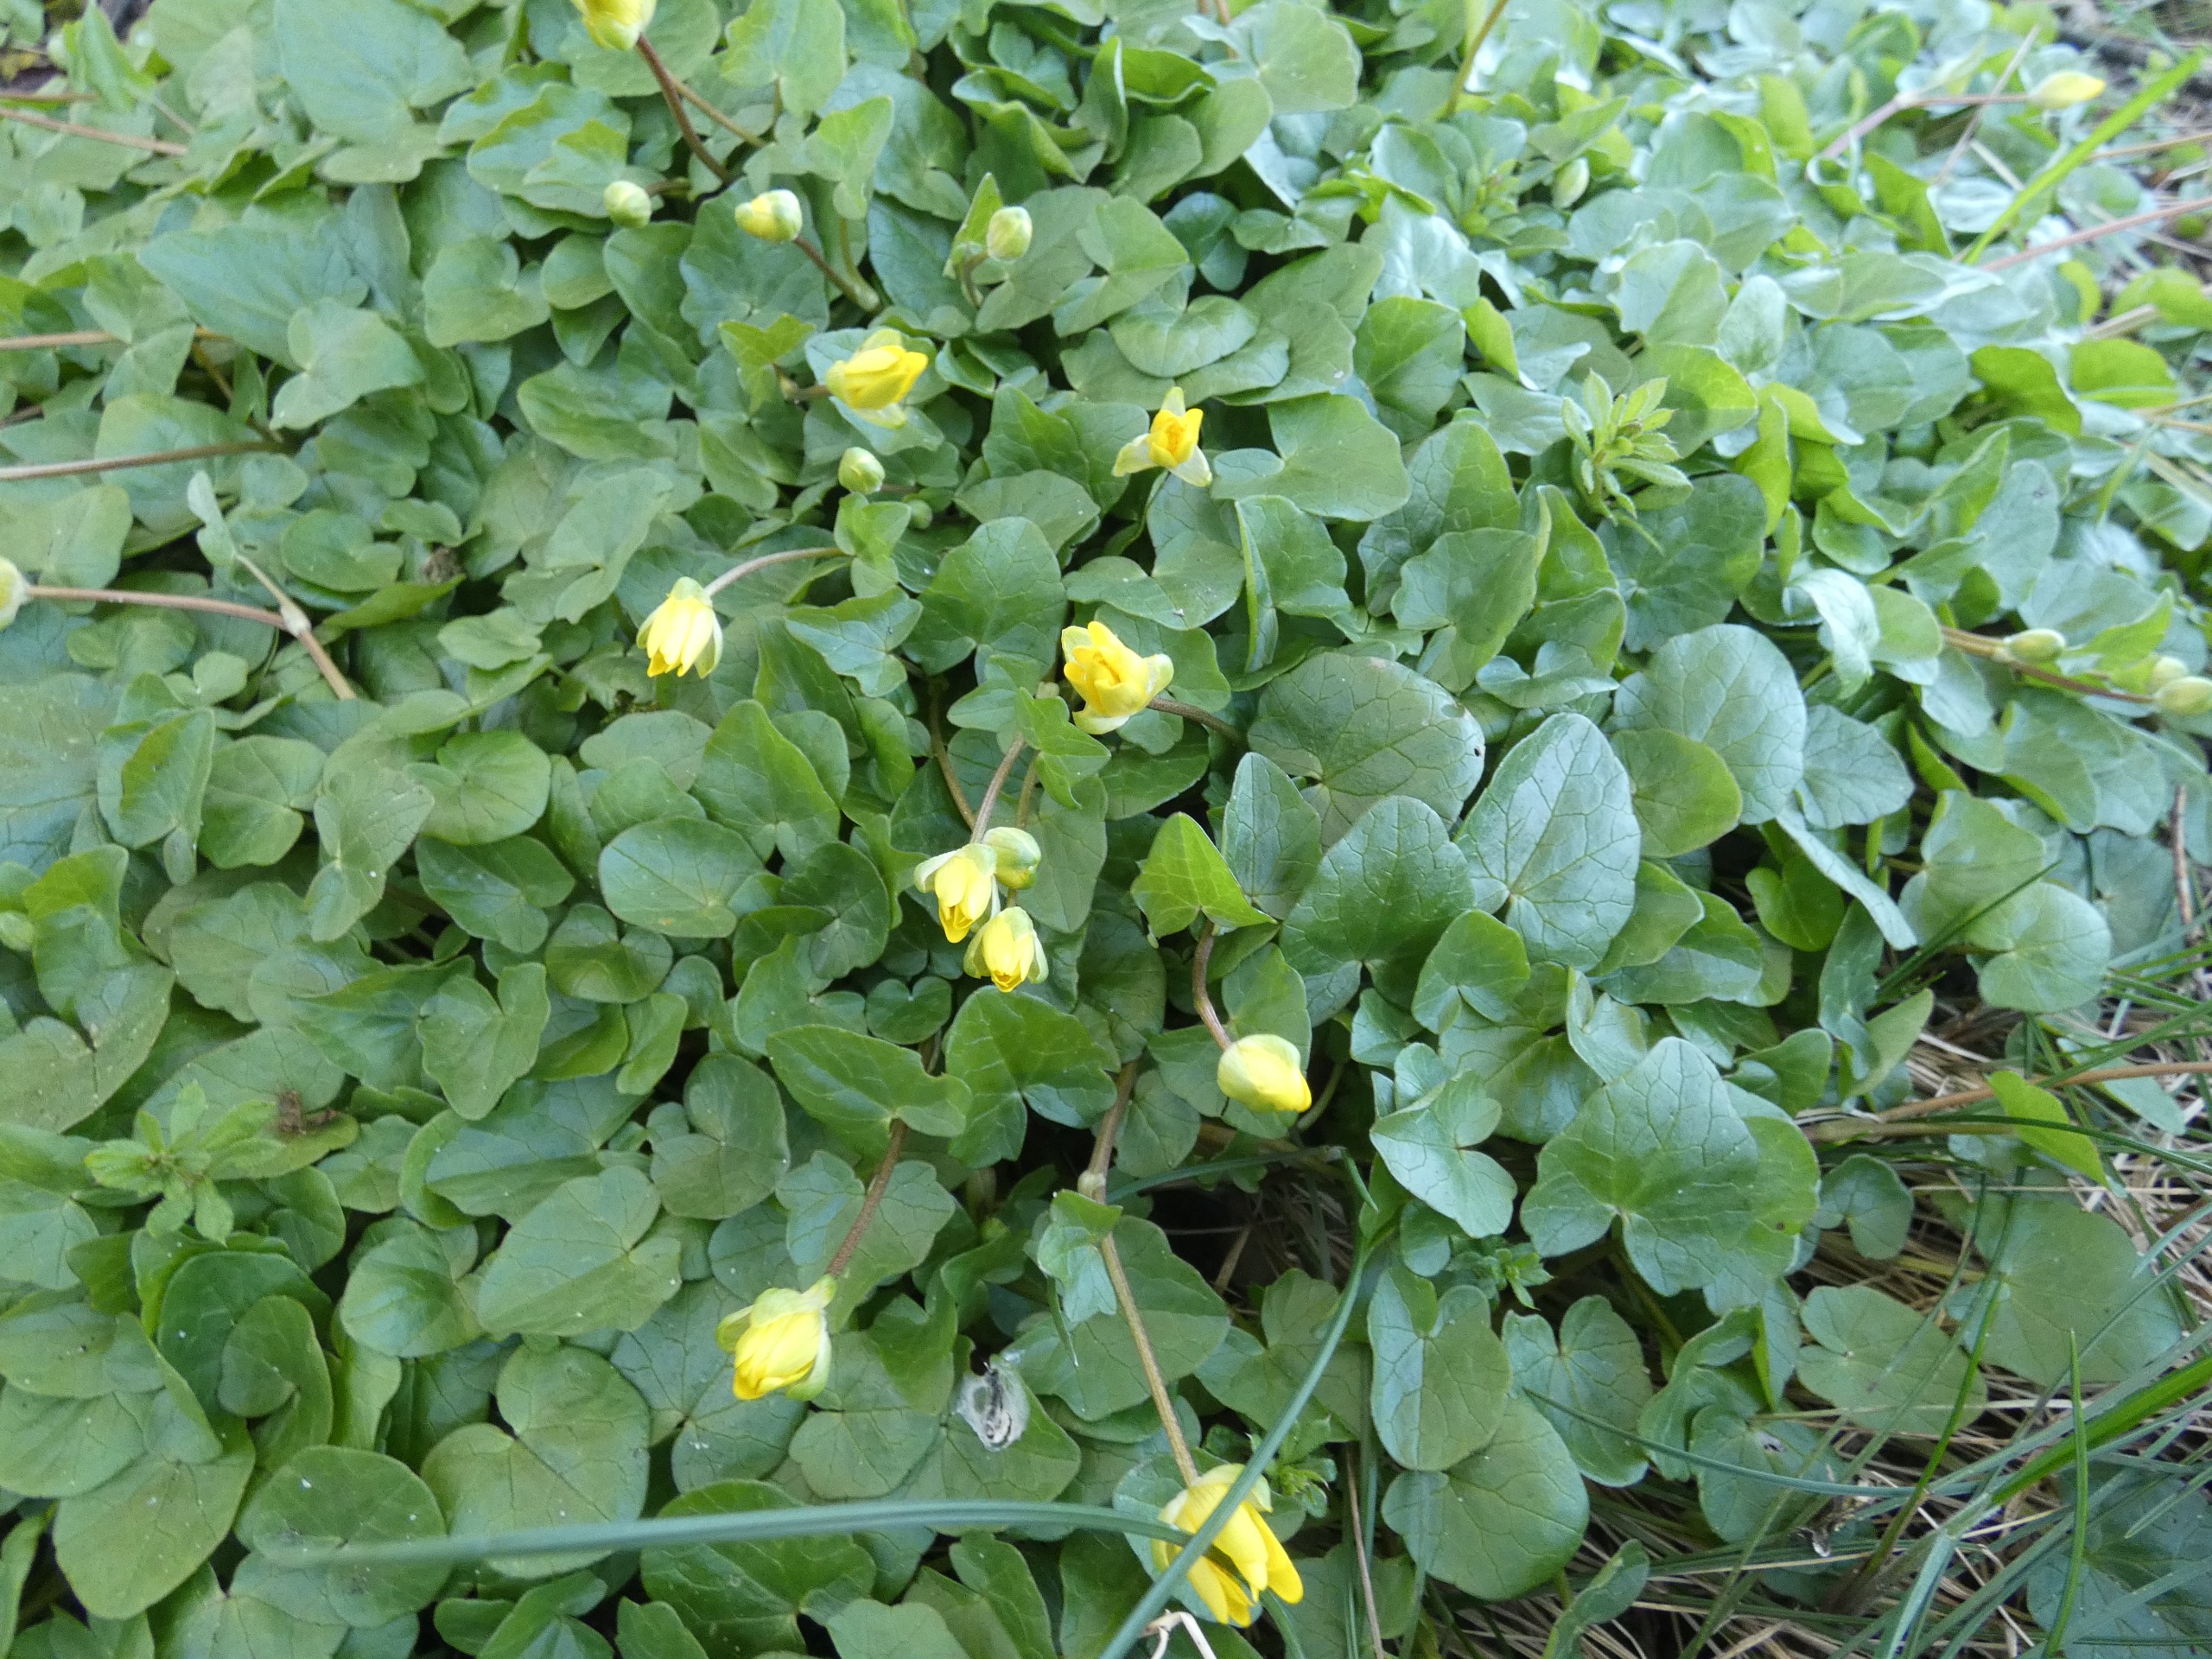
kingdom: Plantae
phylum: Tracheophyta
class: Magnoliopsida
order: Ranunculales
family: Ranunculaceae
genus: Ficaria
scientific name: Ficaria verna
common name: Vorterod
